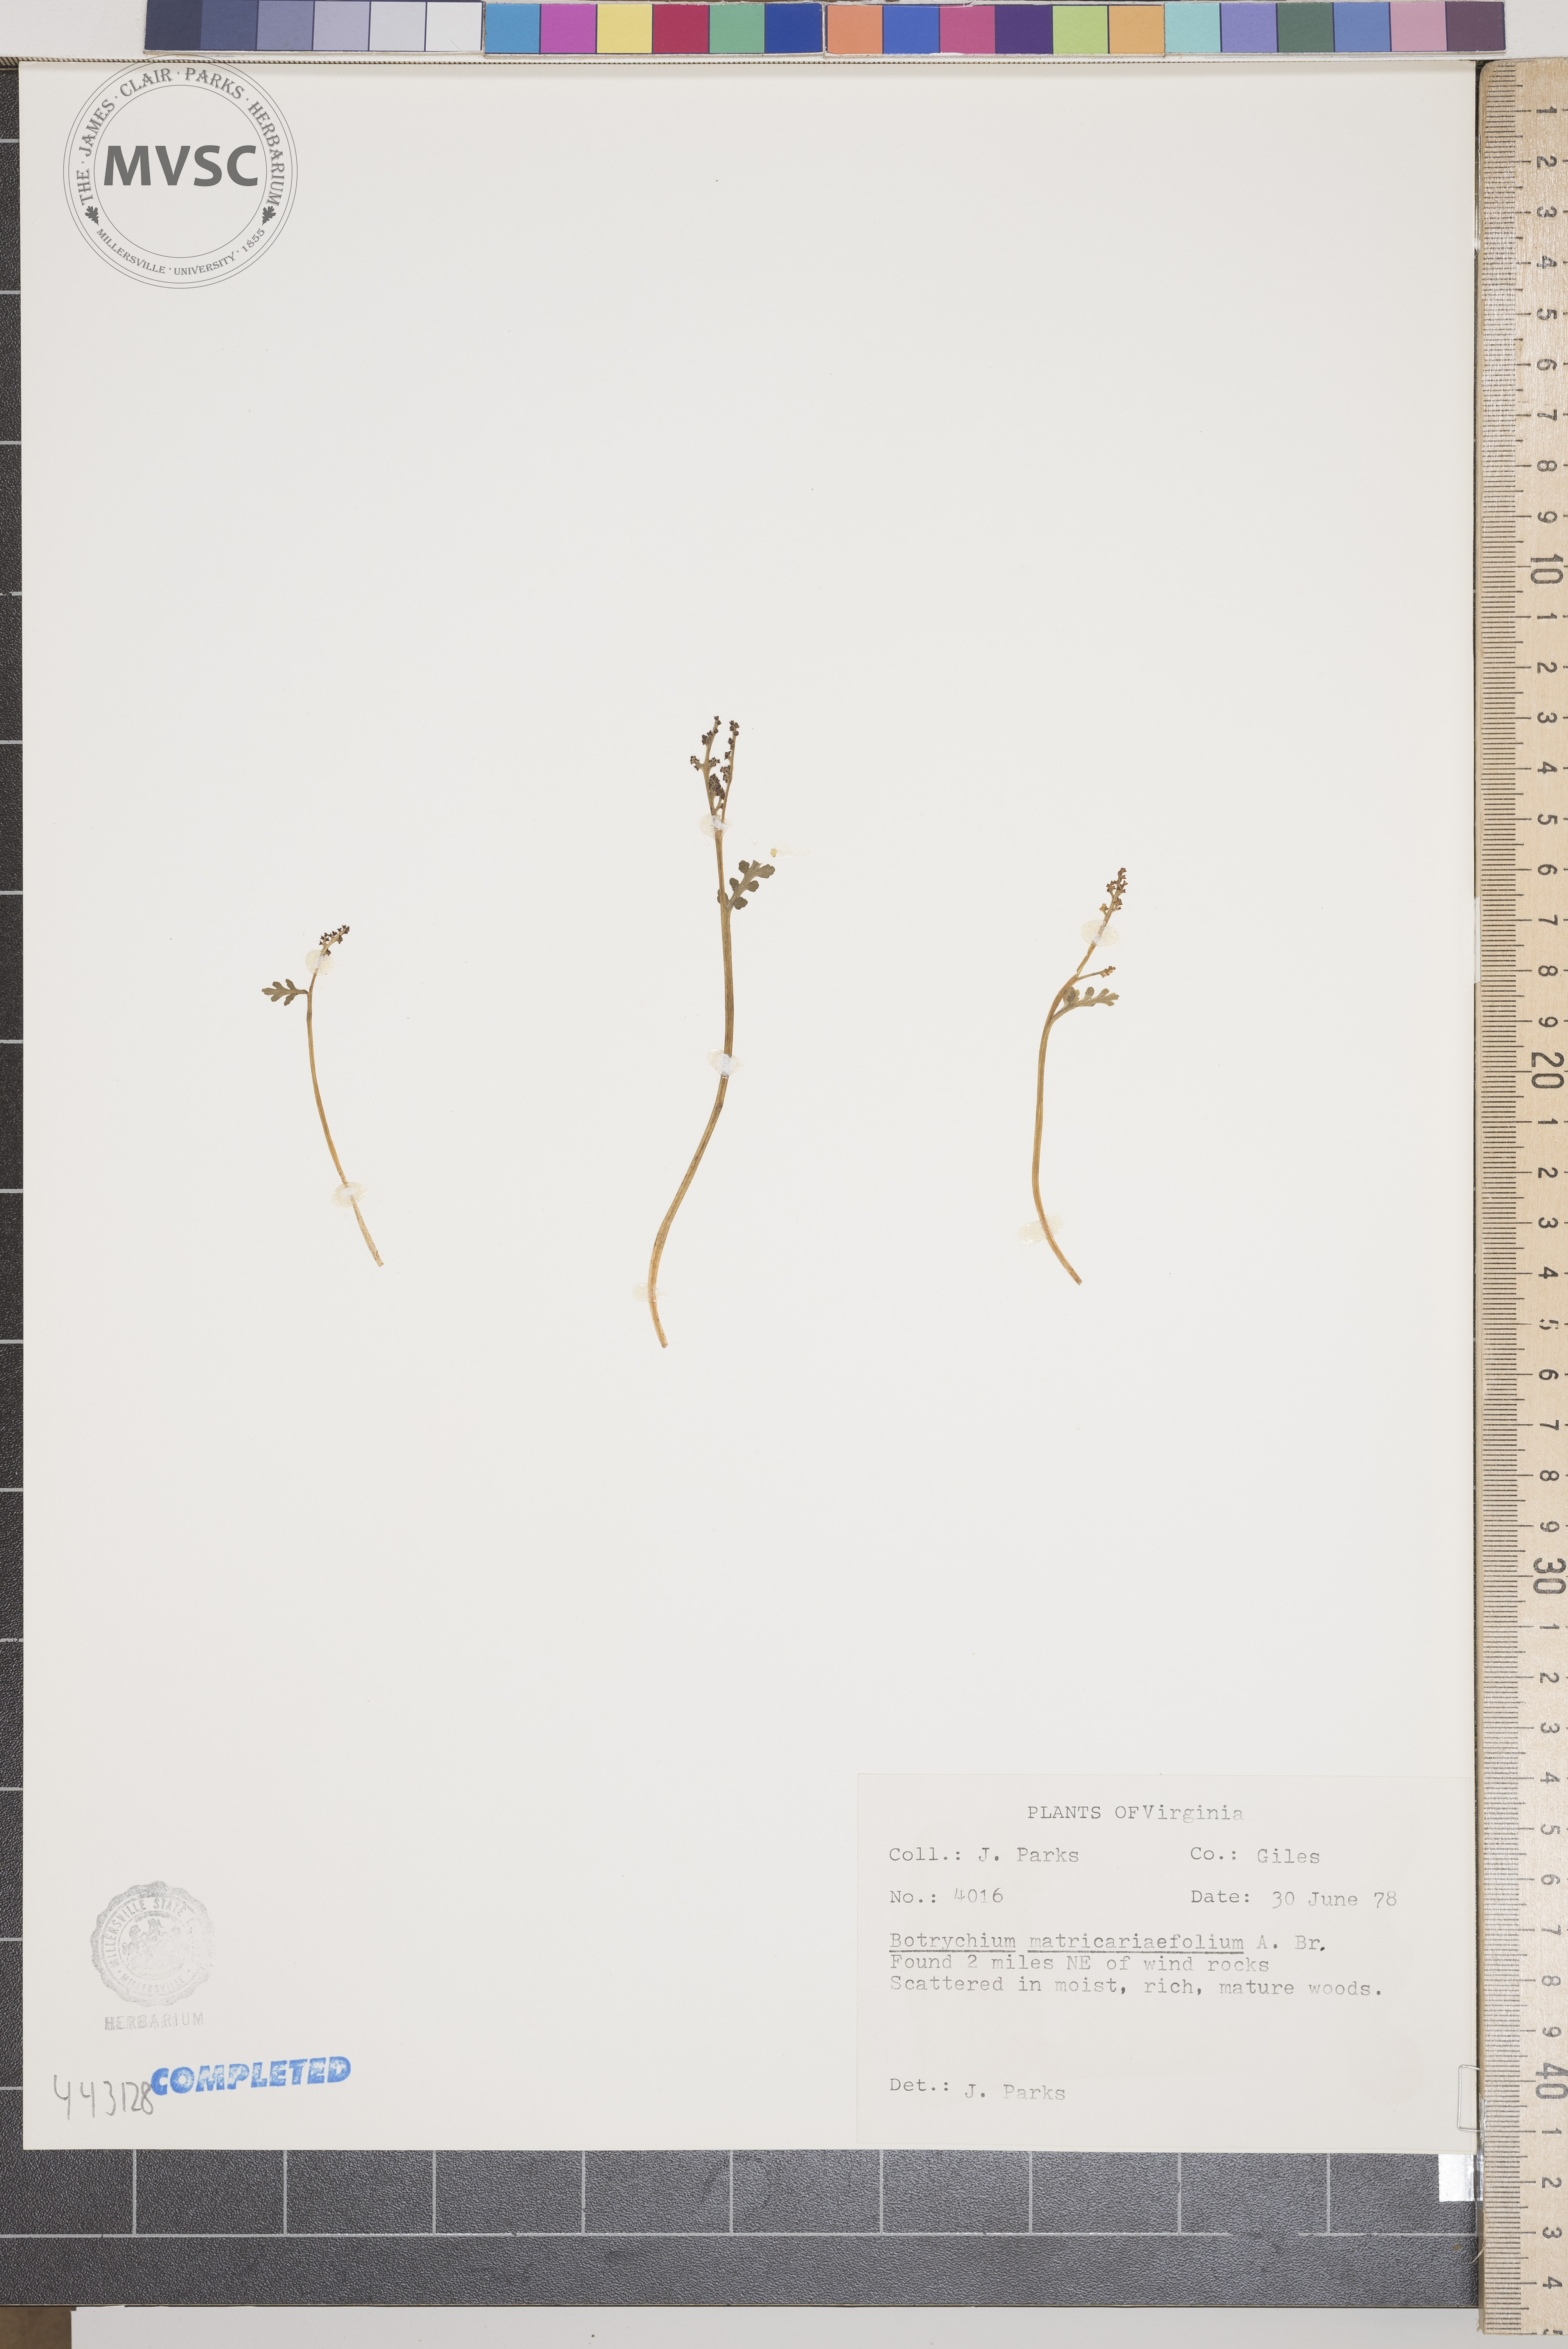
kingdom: Plantae
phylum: Tracheophyta
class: Polypodiopsida
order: Ophioglossales
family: Ophioglossaceae
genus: Botrychium
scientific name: Botrychium matricariifolium
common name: Branched moonwort
